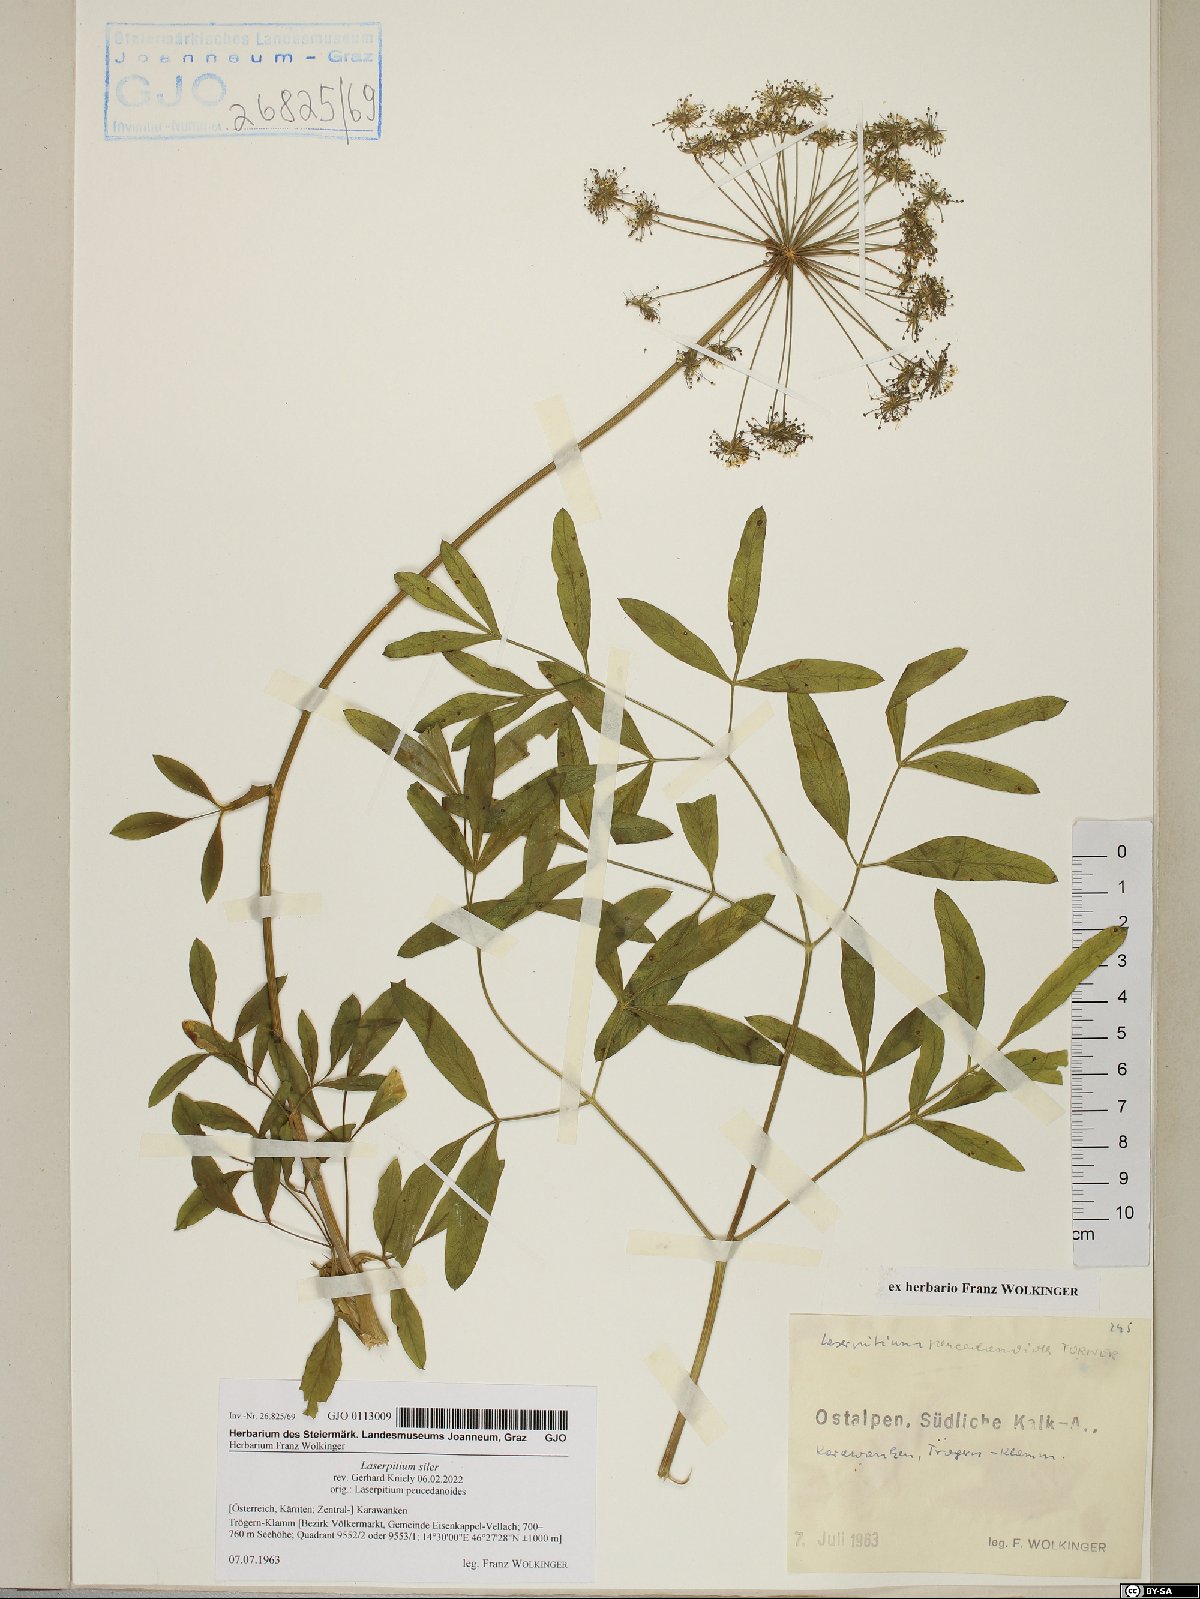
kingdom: Plantae
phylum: Tracheophyta
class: Magnoliopsida
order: Apiales
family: Apiaceae
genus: Siler
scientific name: Siler montanum
